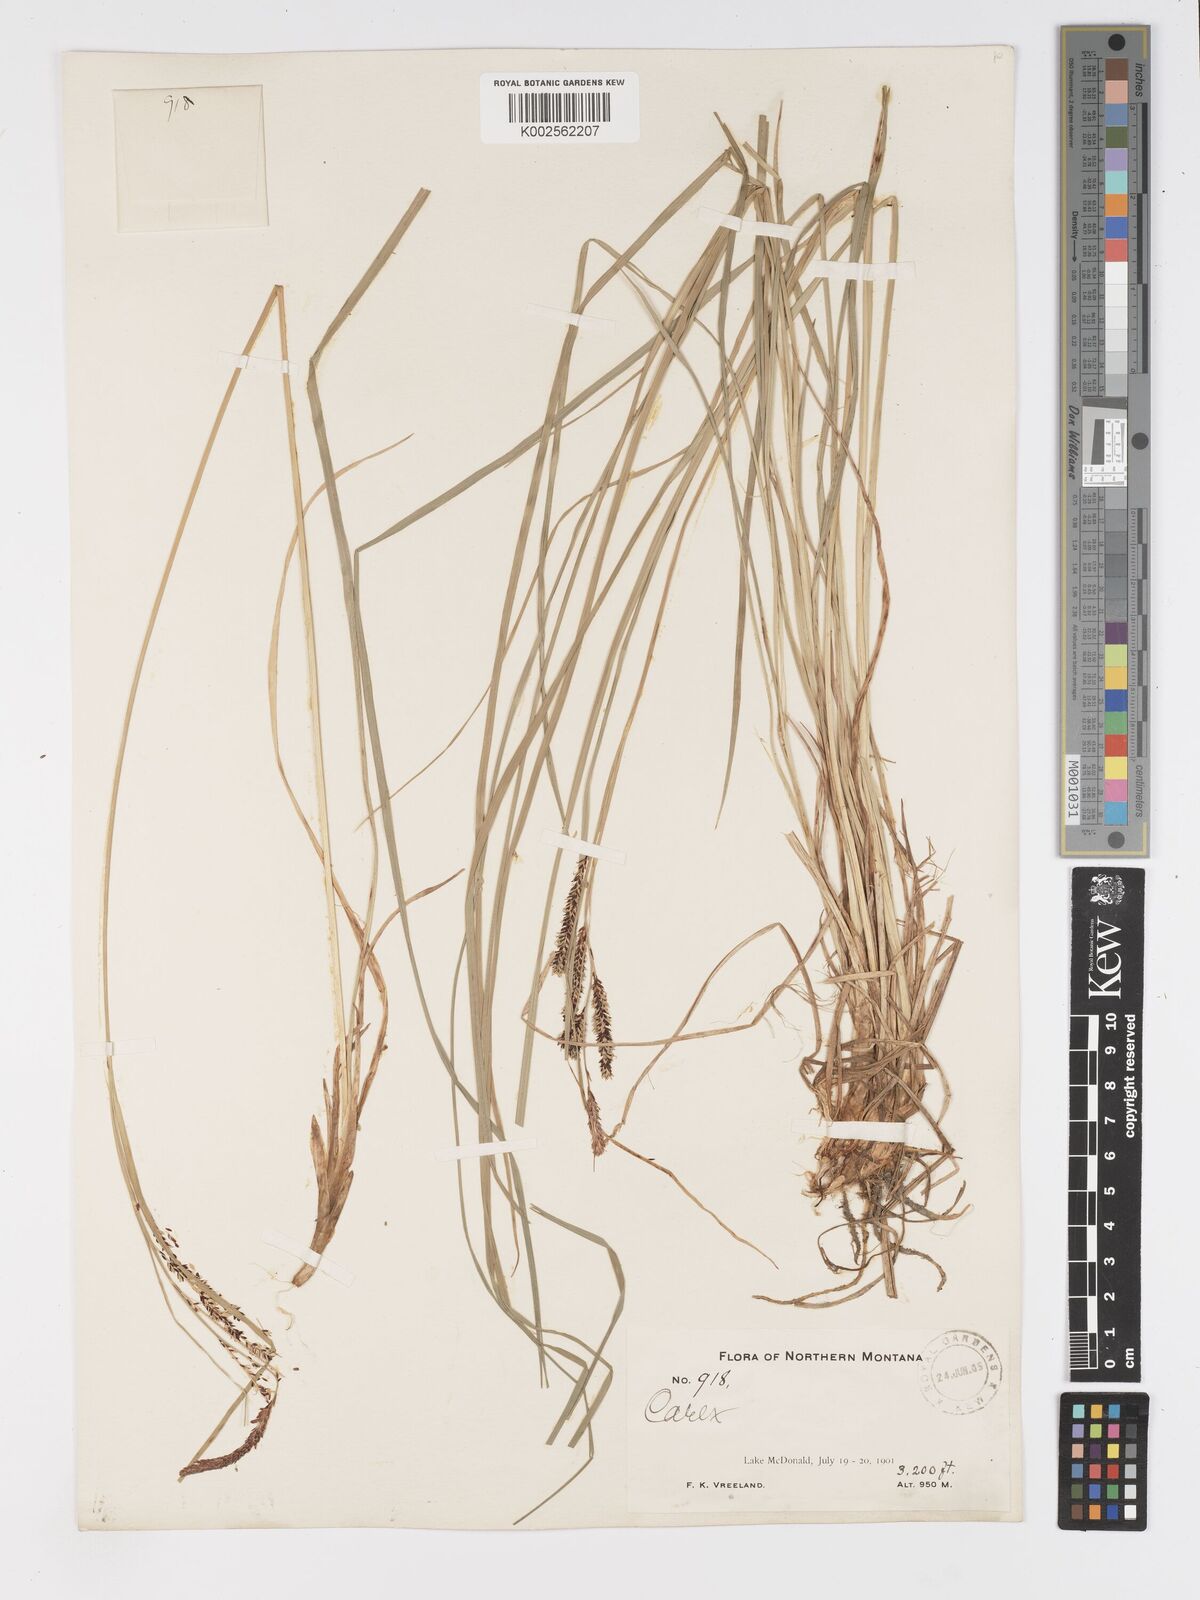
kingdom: Plantae
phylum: Tracheophyta
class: Liliopsida
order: Poales
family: Cyperaceae
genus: Carex
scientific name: Carex nigra
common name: Common sedge
